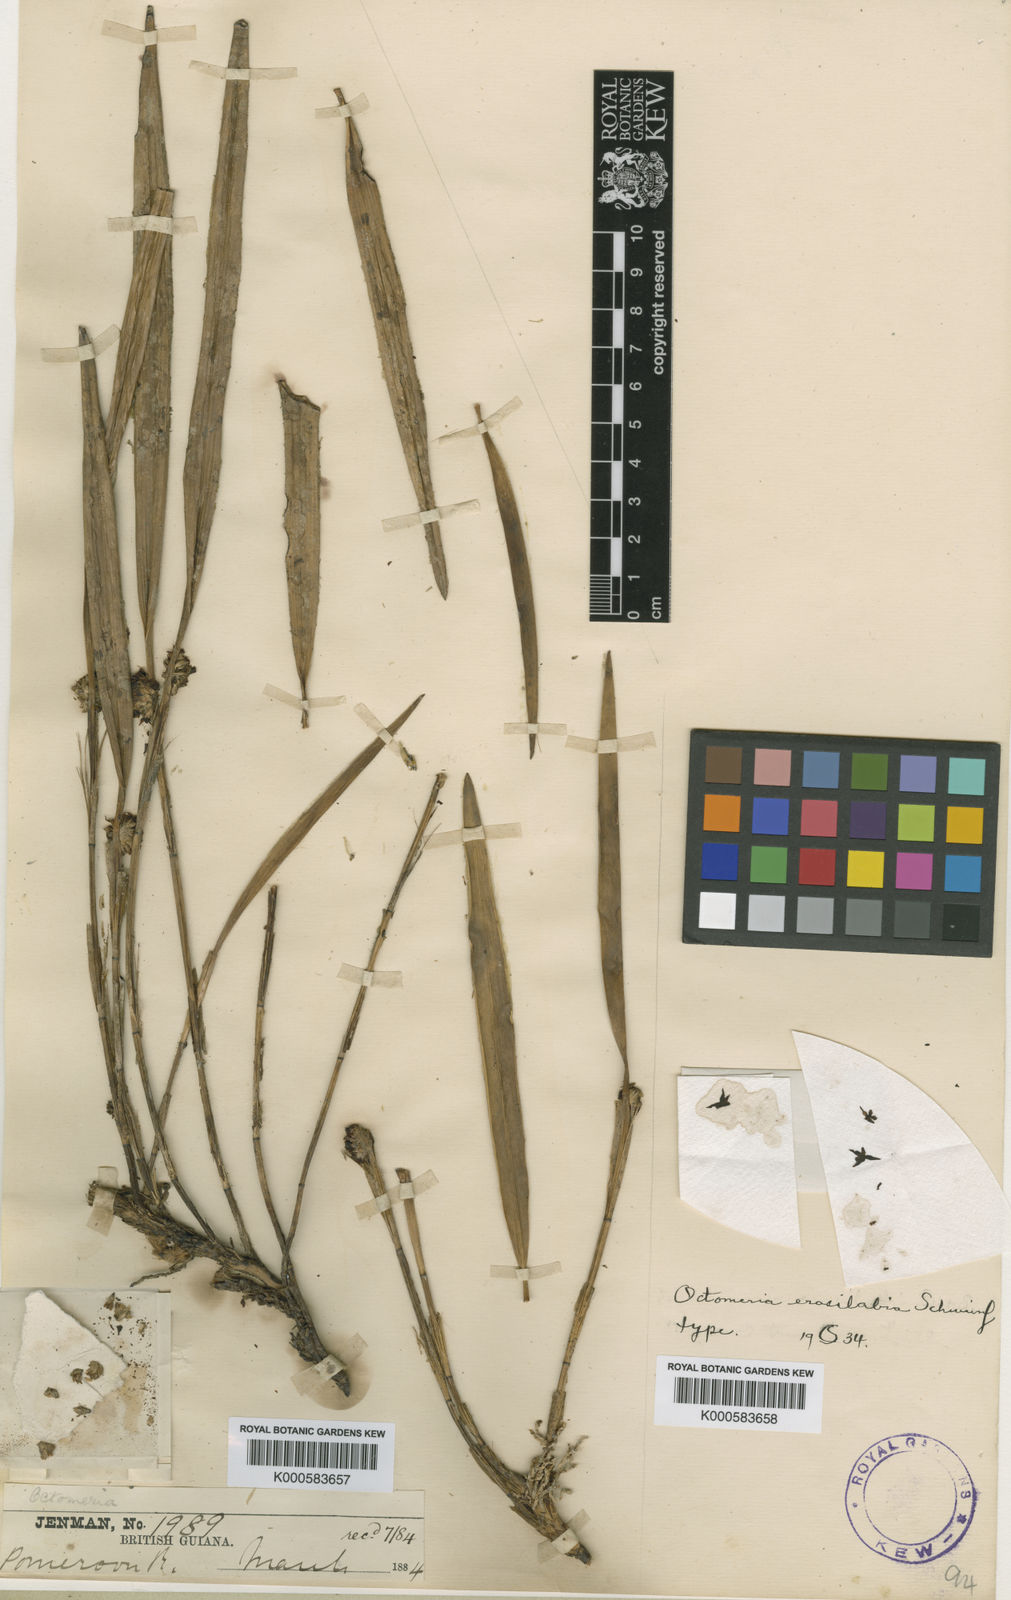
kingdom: Plantae
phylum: Tracheophyta
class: Liliopsida
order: Asparagales
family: Orchidaceae
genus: Octomeria
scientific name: Octomeria erosilabia
